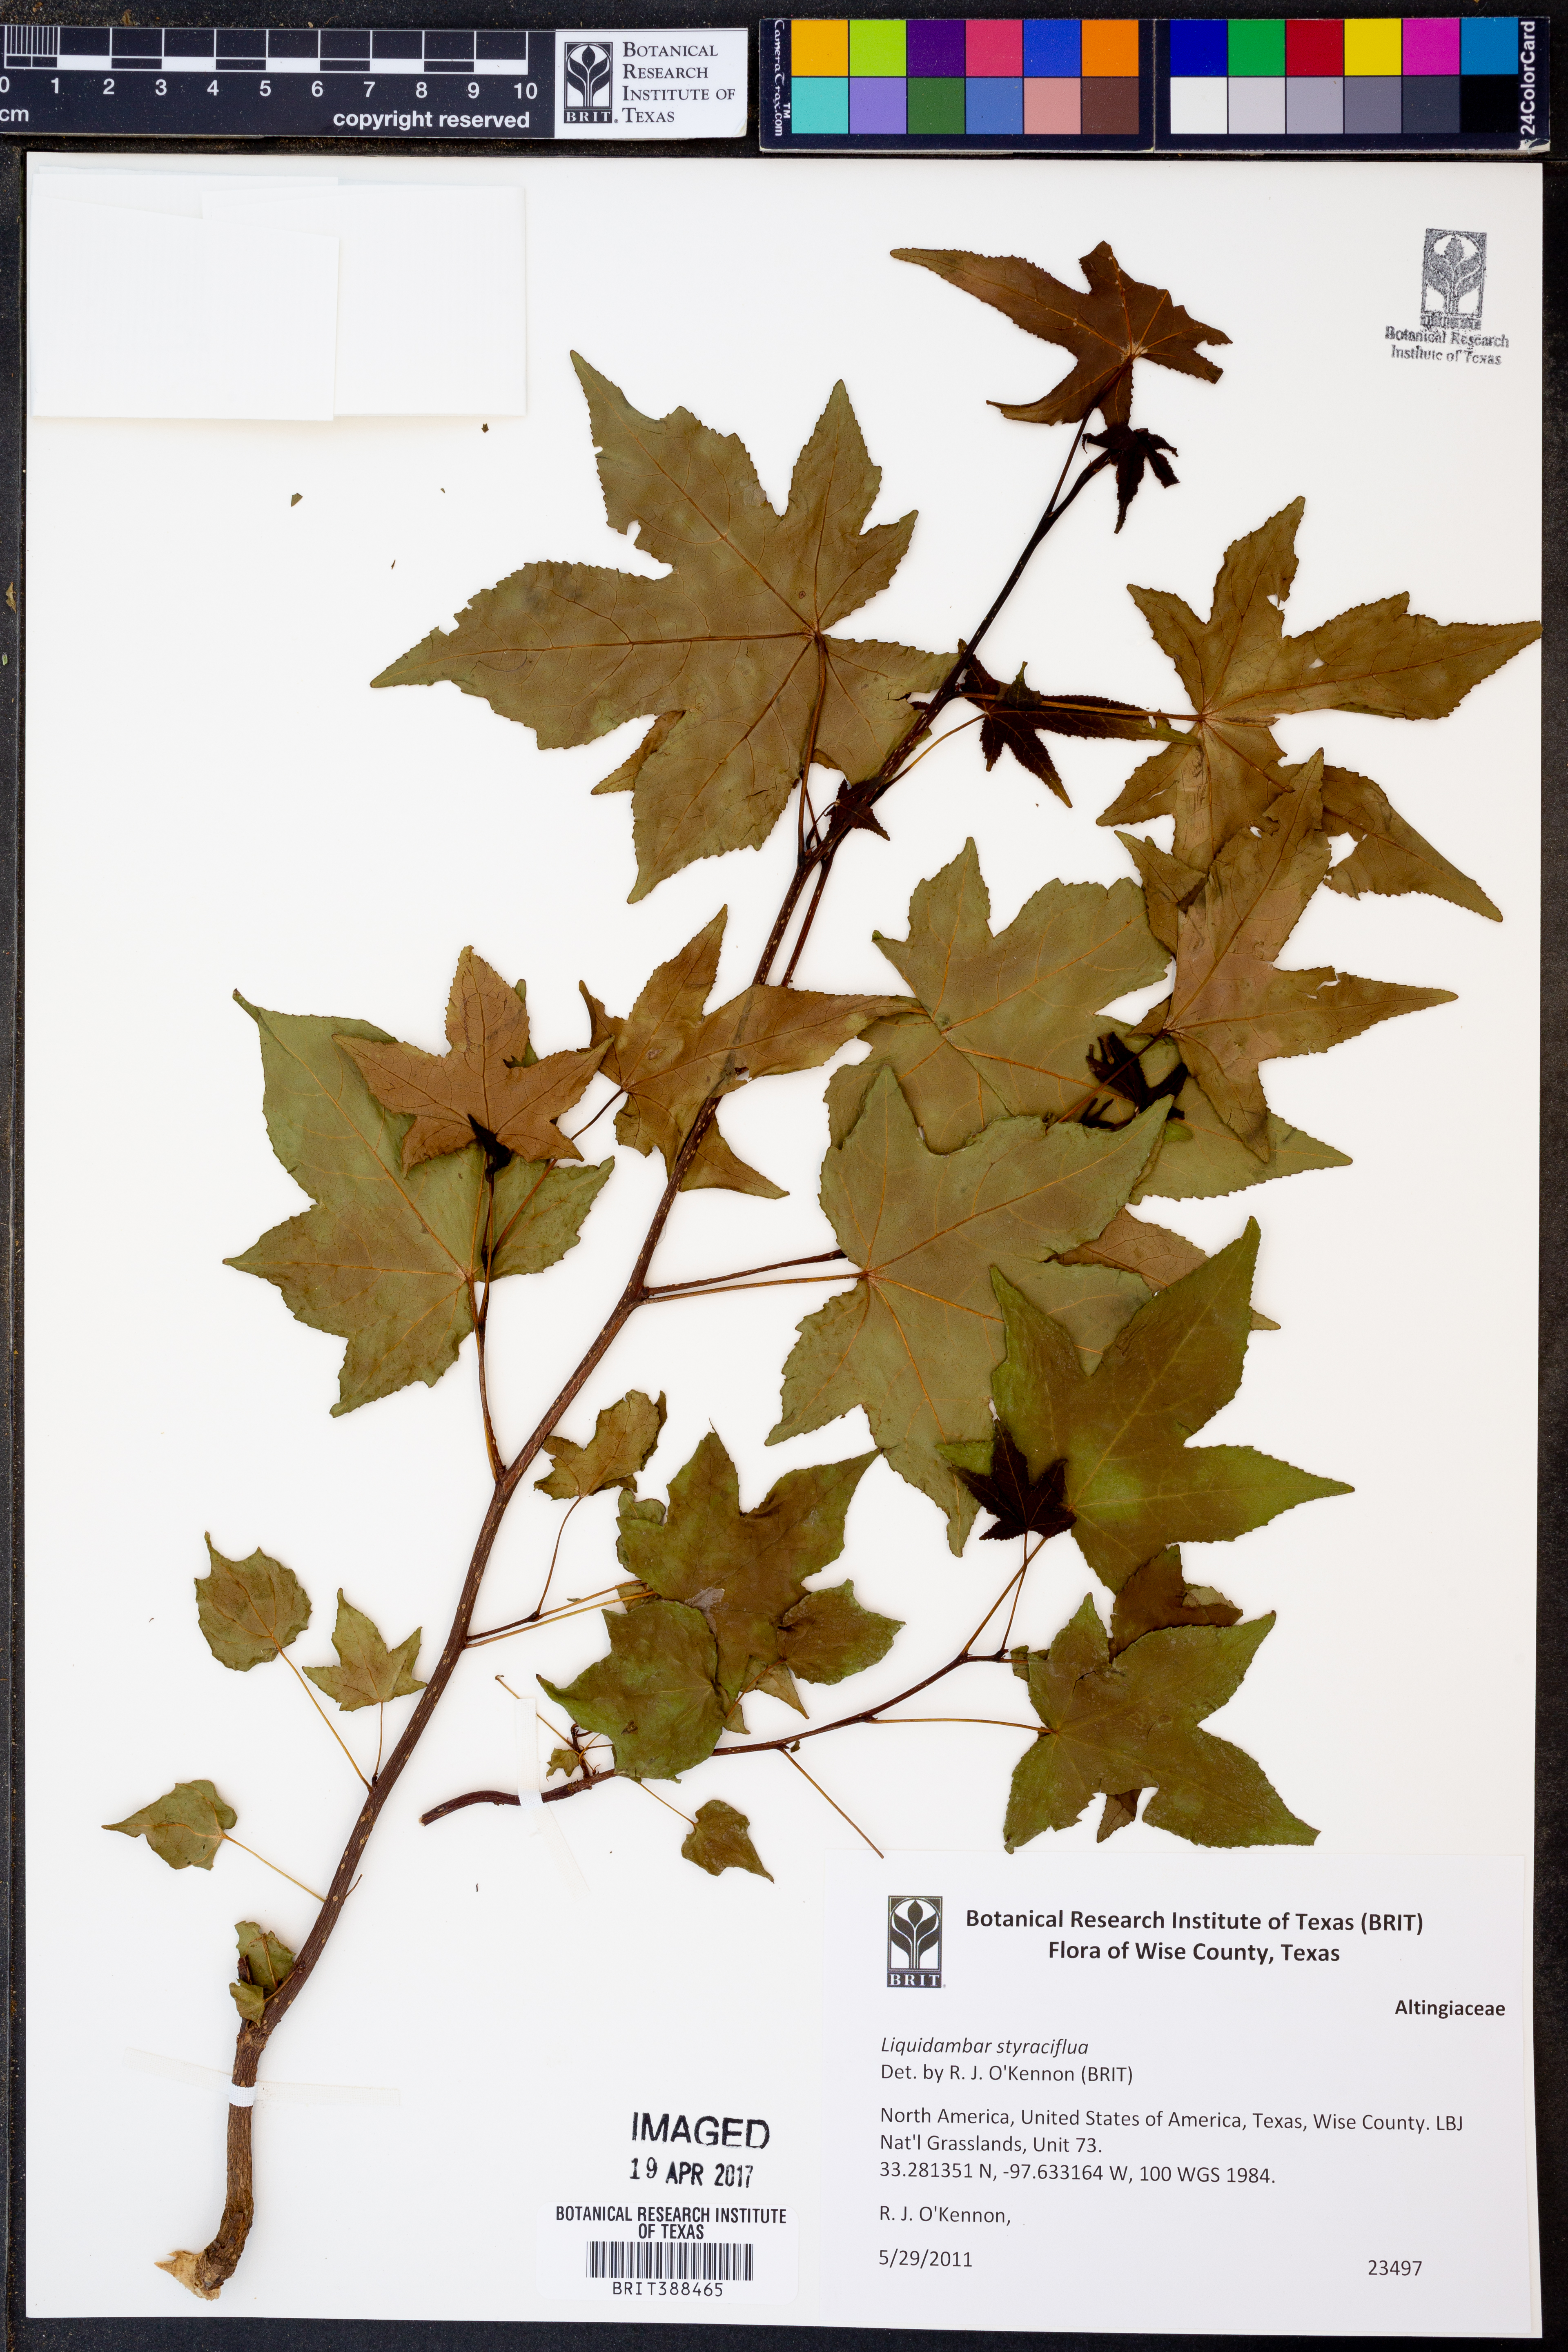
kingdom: Plantae
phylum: Tracheophyta
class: Magnoliopsida
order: Saxifragales
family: Altingiaceae
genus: Liquidambar
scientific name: Liquidambar styraciflua
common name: Sweet gum
